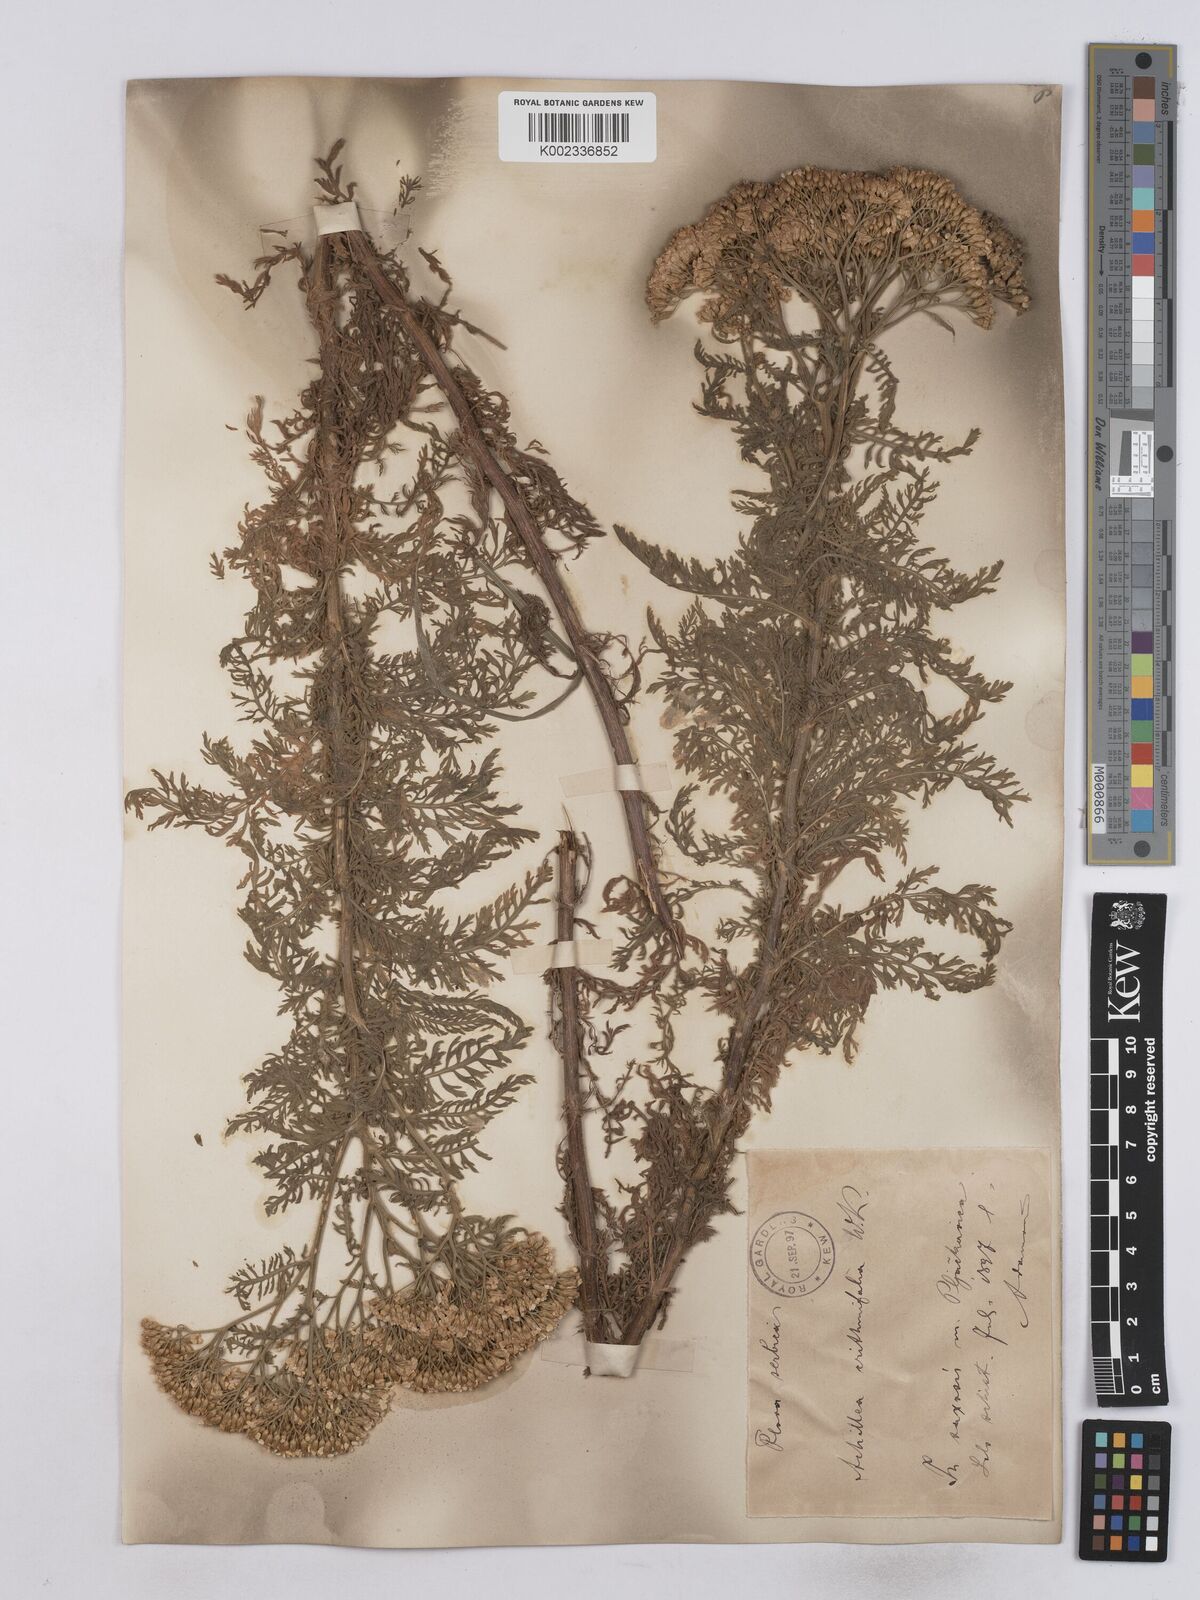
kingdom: Plantae
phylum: Tracheophyta
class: Magnoliopsida
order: Asterales
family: Asteraceae
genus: Achillea
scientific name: Achillea crithmifolia
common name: Yarrow
